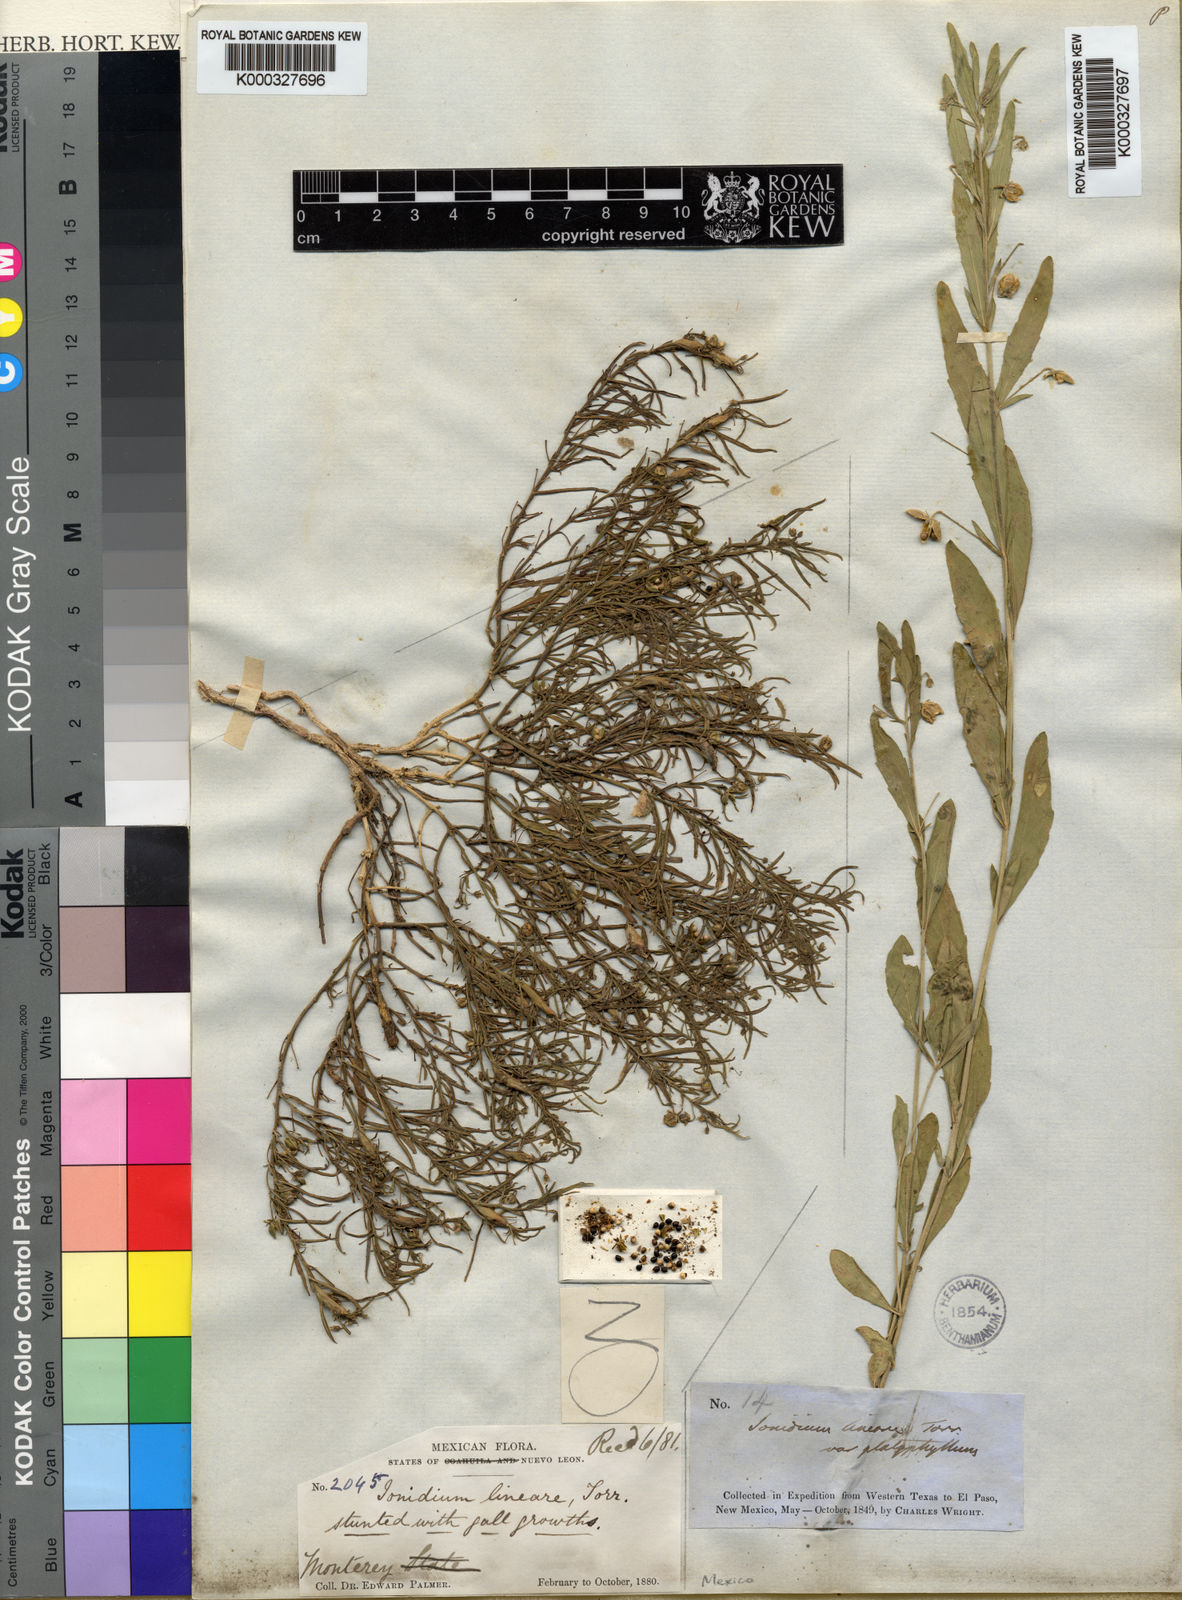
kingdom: Plantae
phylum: Tracheophyta
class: Magnoliopsida
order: Malpighiales
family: Violaceae
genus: Pombalia
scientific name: Pombalia verticillata
